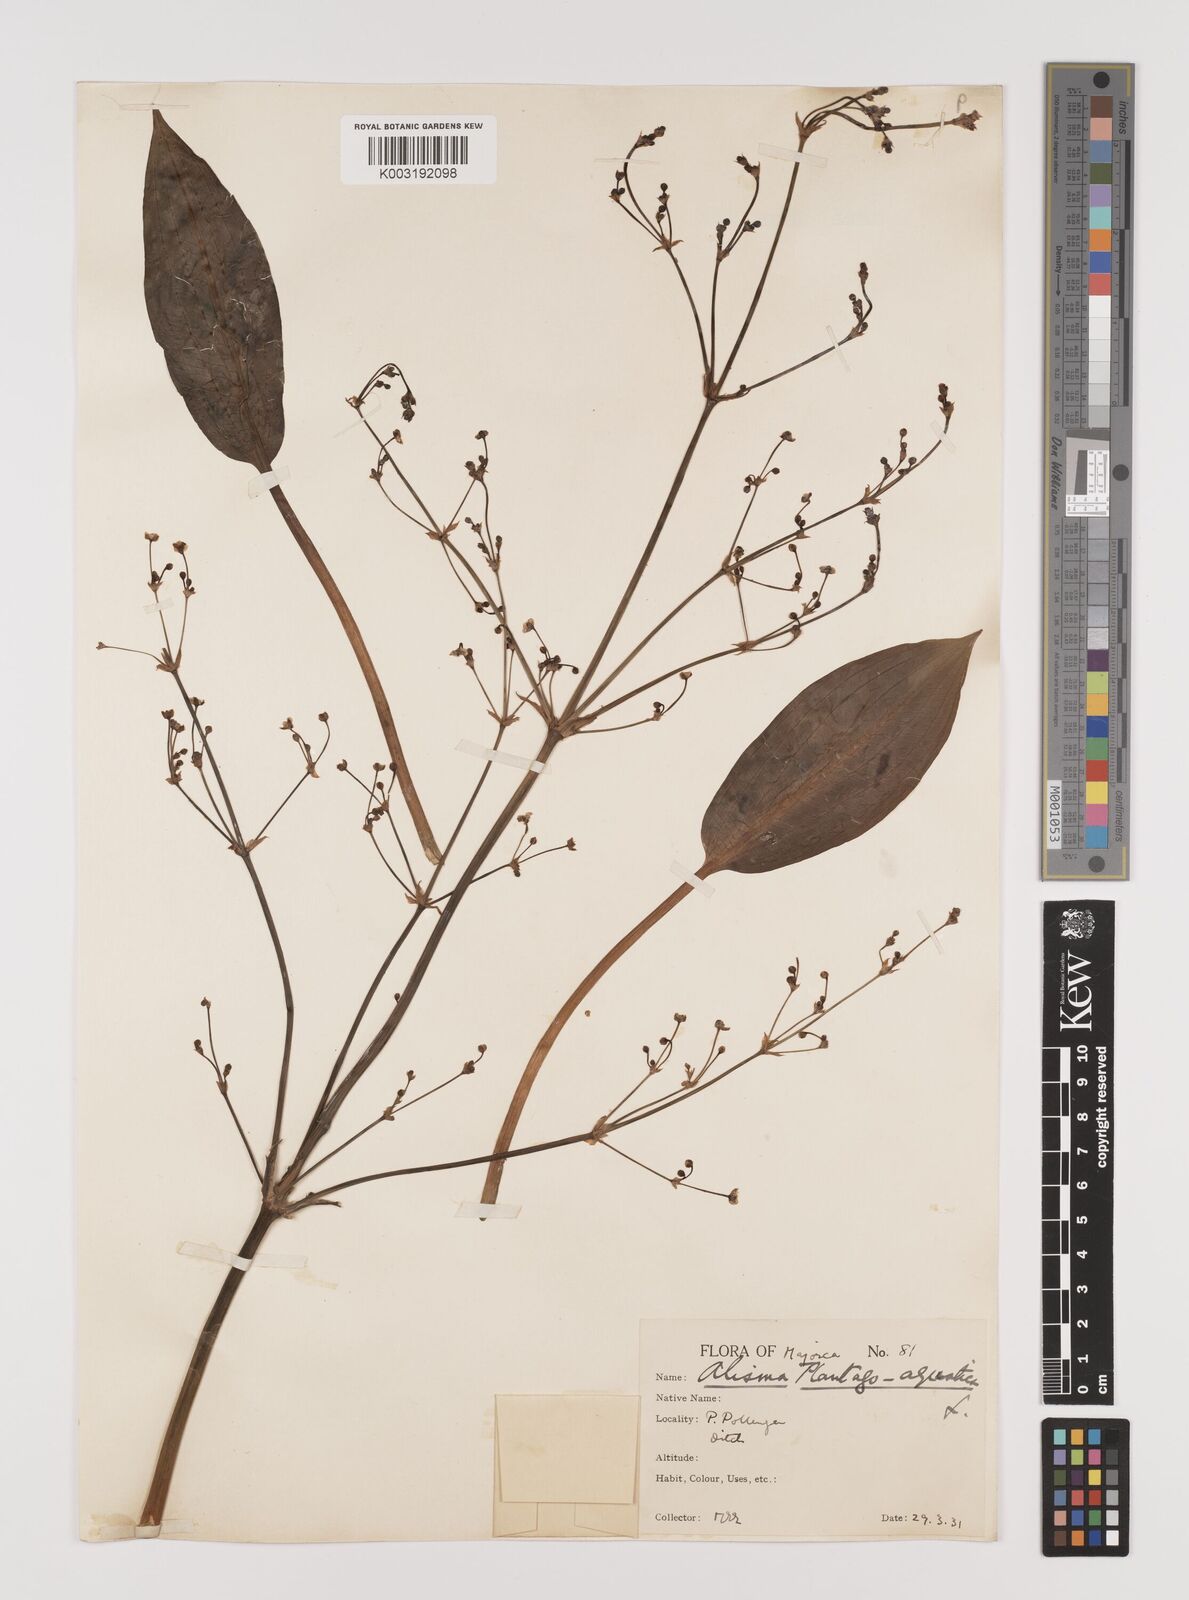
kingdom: Plantae
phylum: Tracheophyta
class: Liliopsida
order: Alismatales
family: Alismataceae
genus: Alisma
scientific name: Alisma plantago-aquatica
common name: Water-plantain
